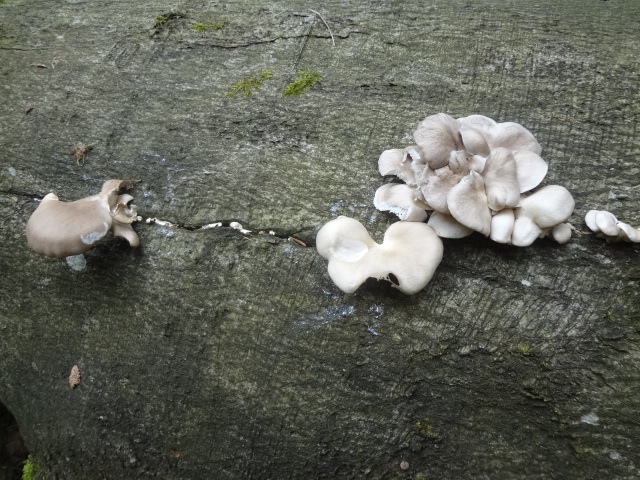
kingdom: Fungi
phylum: Basidiomycota
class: Agaricomycetes
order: Agaricales
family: Pleurotaceae
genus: Pleurotus
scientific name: Pleurotus pulmonarius
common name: sommer-østershat
